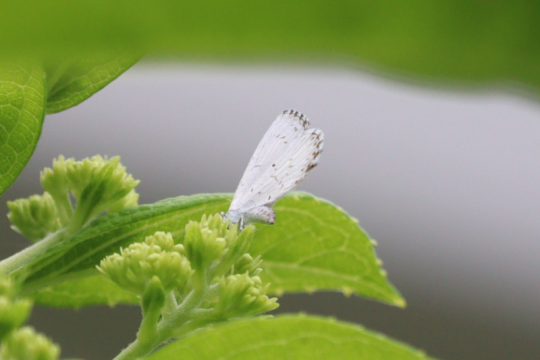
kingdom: Animalia
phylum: Arthropoda
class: Insecta
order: Lepidoptera
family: Lycaenidae
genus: Cyaniris
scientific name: Cyaniris neglecta
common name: Summer Azure
